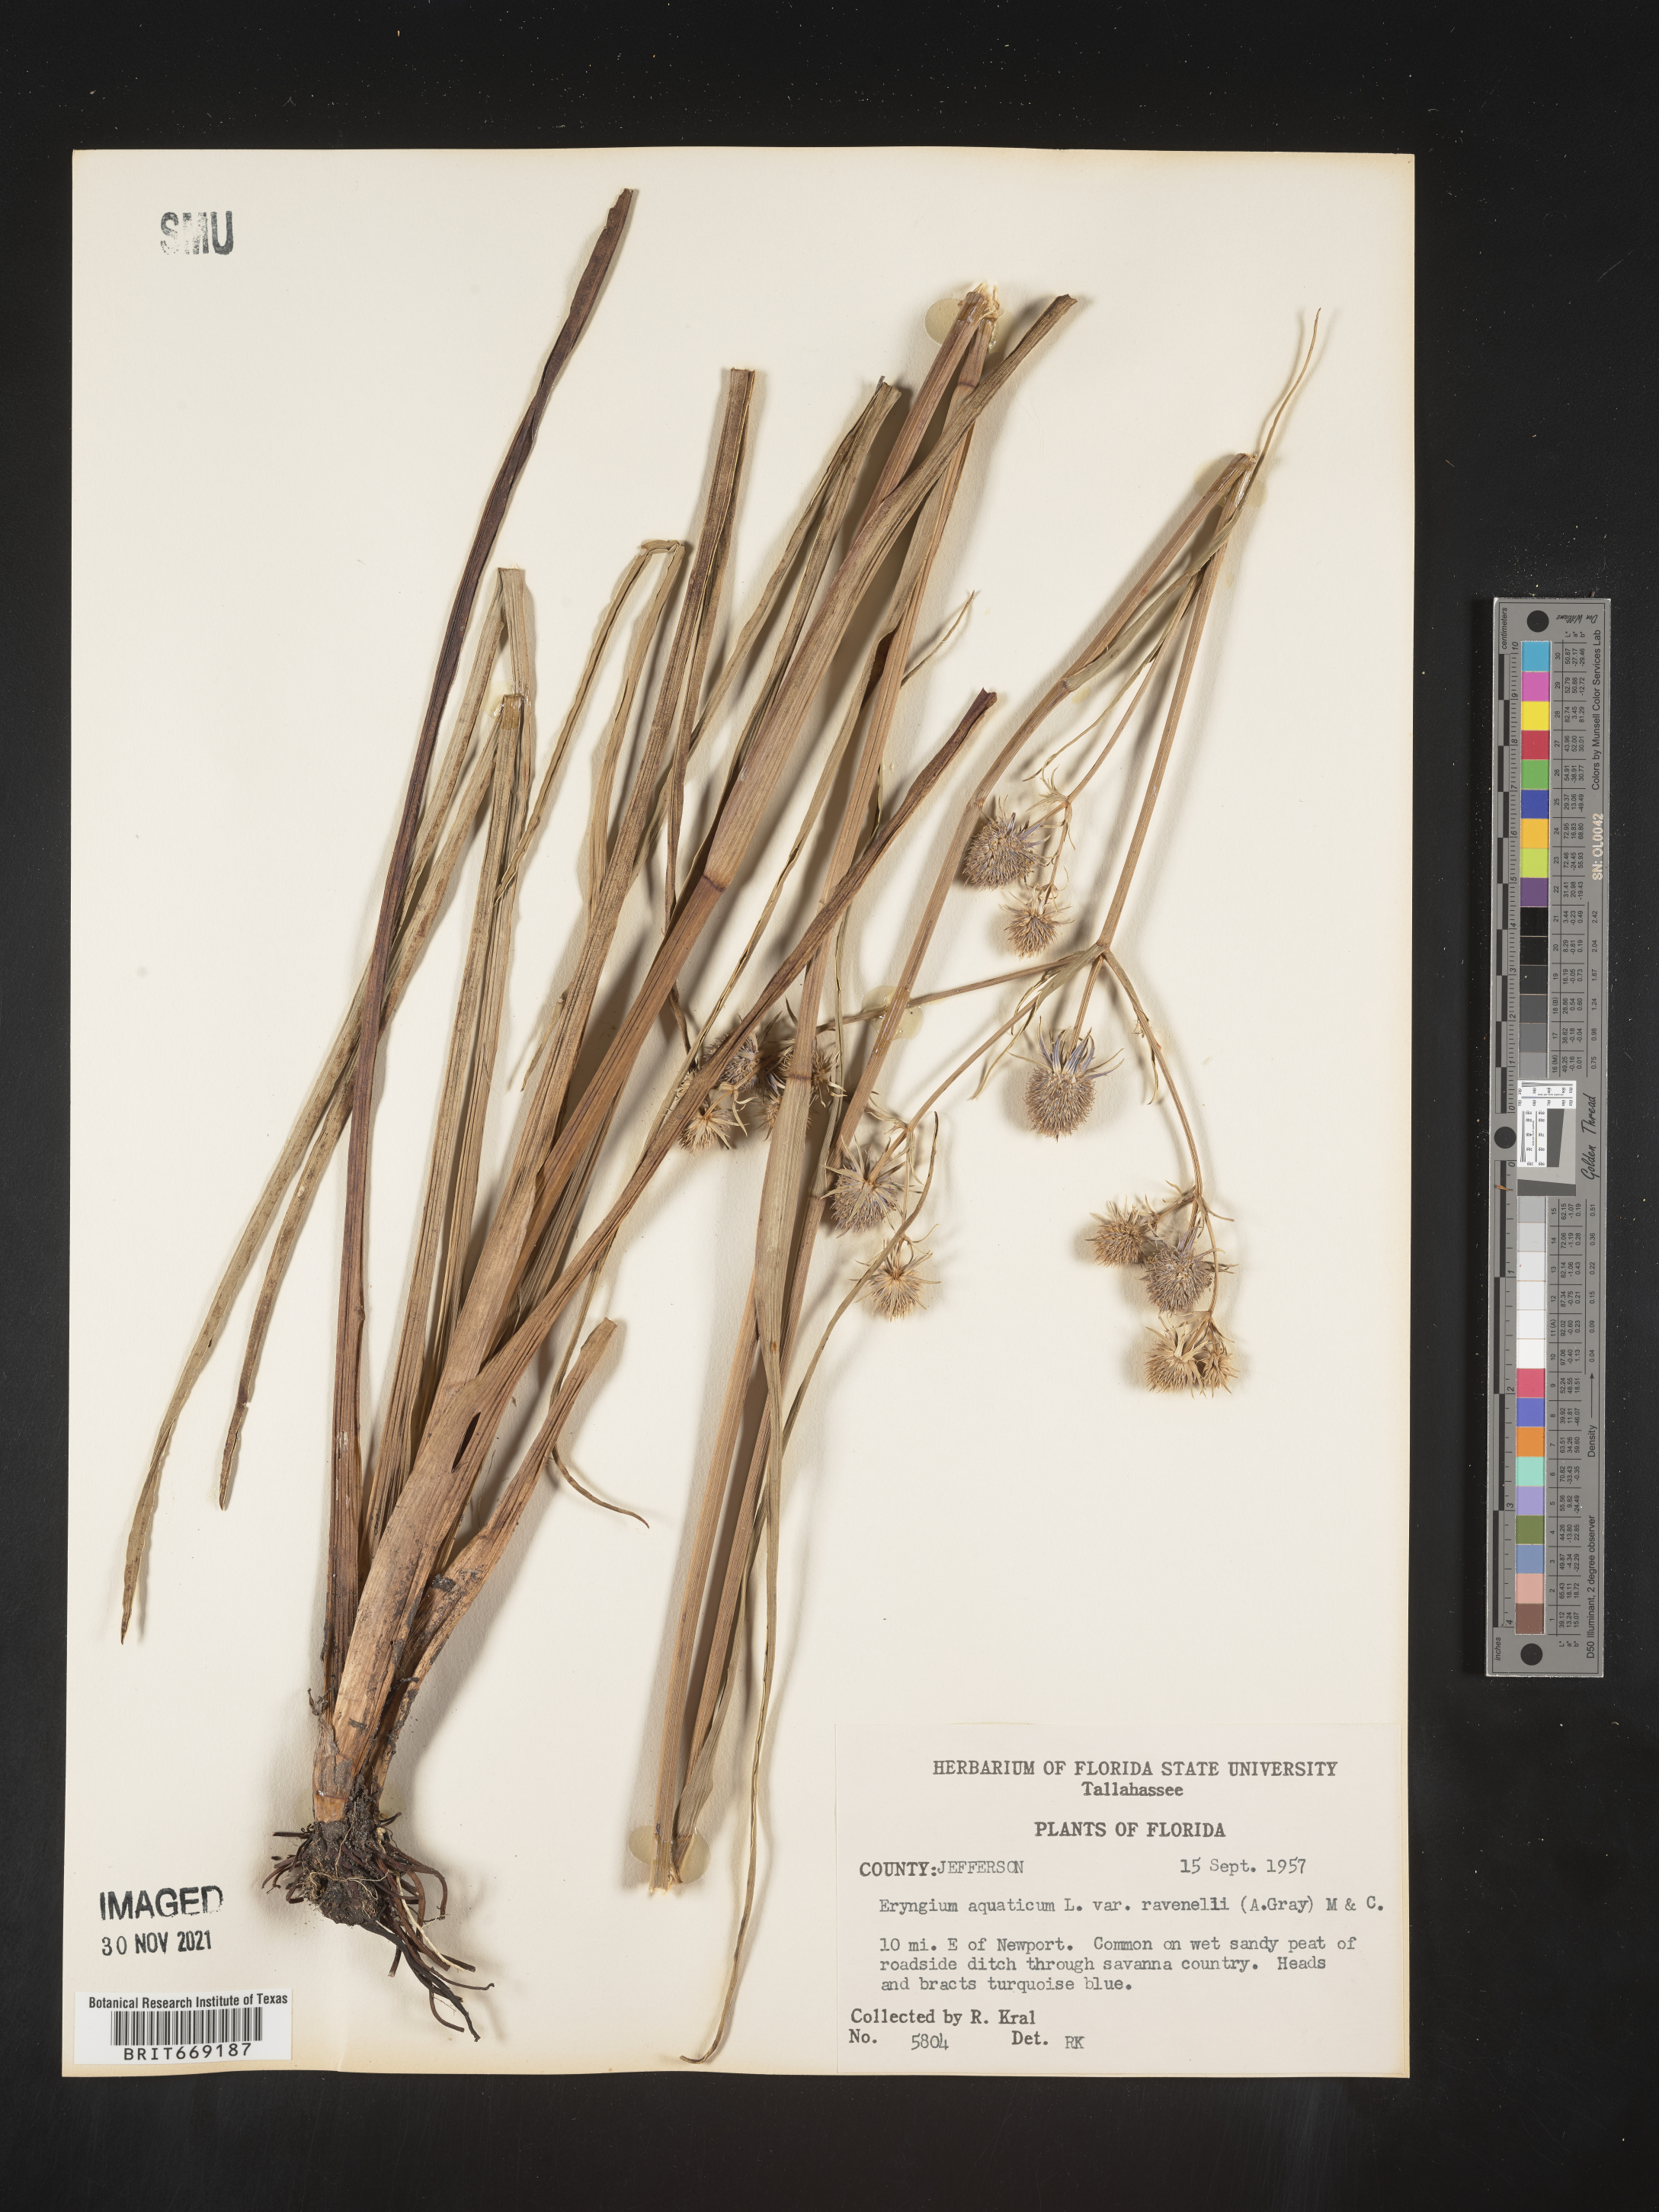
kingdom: Plantae
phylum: Tracheophyta
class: Magnoliopsida
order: Apiales
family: Apiaceae
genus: Eryngium
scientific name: Eryngium aquaticum
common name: Water eryngo
